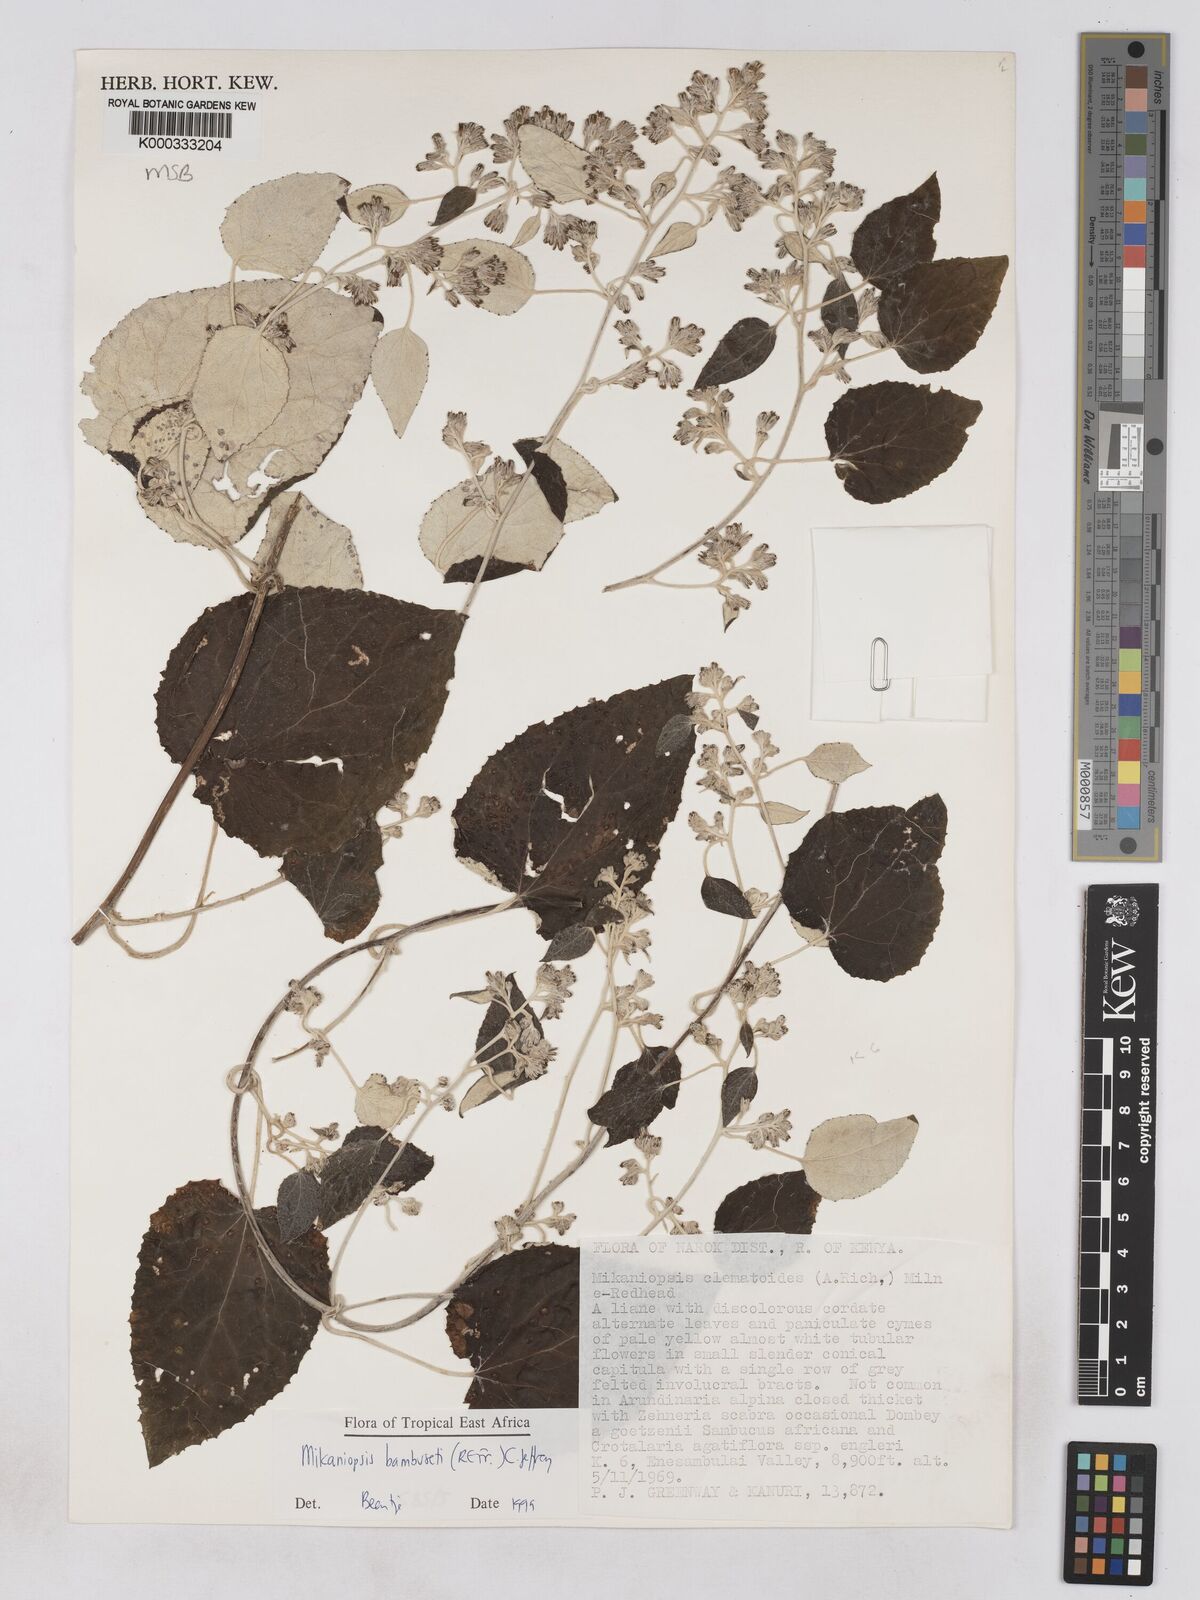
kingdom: Plantae
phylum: Tracheophyta
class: Magnoliopsida
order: Asterales
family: Asteraceae
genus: Mikaniopsis
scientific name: Mikaniopsis bambuseti
